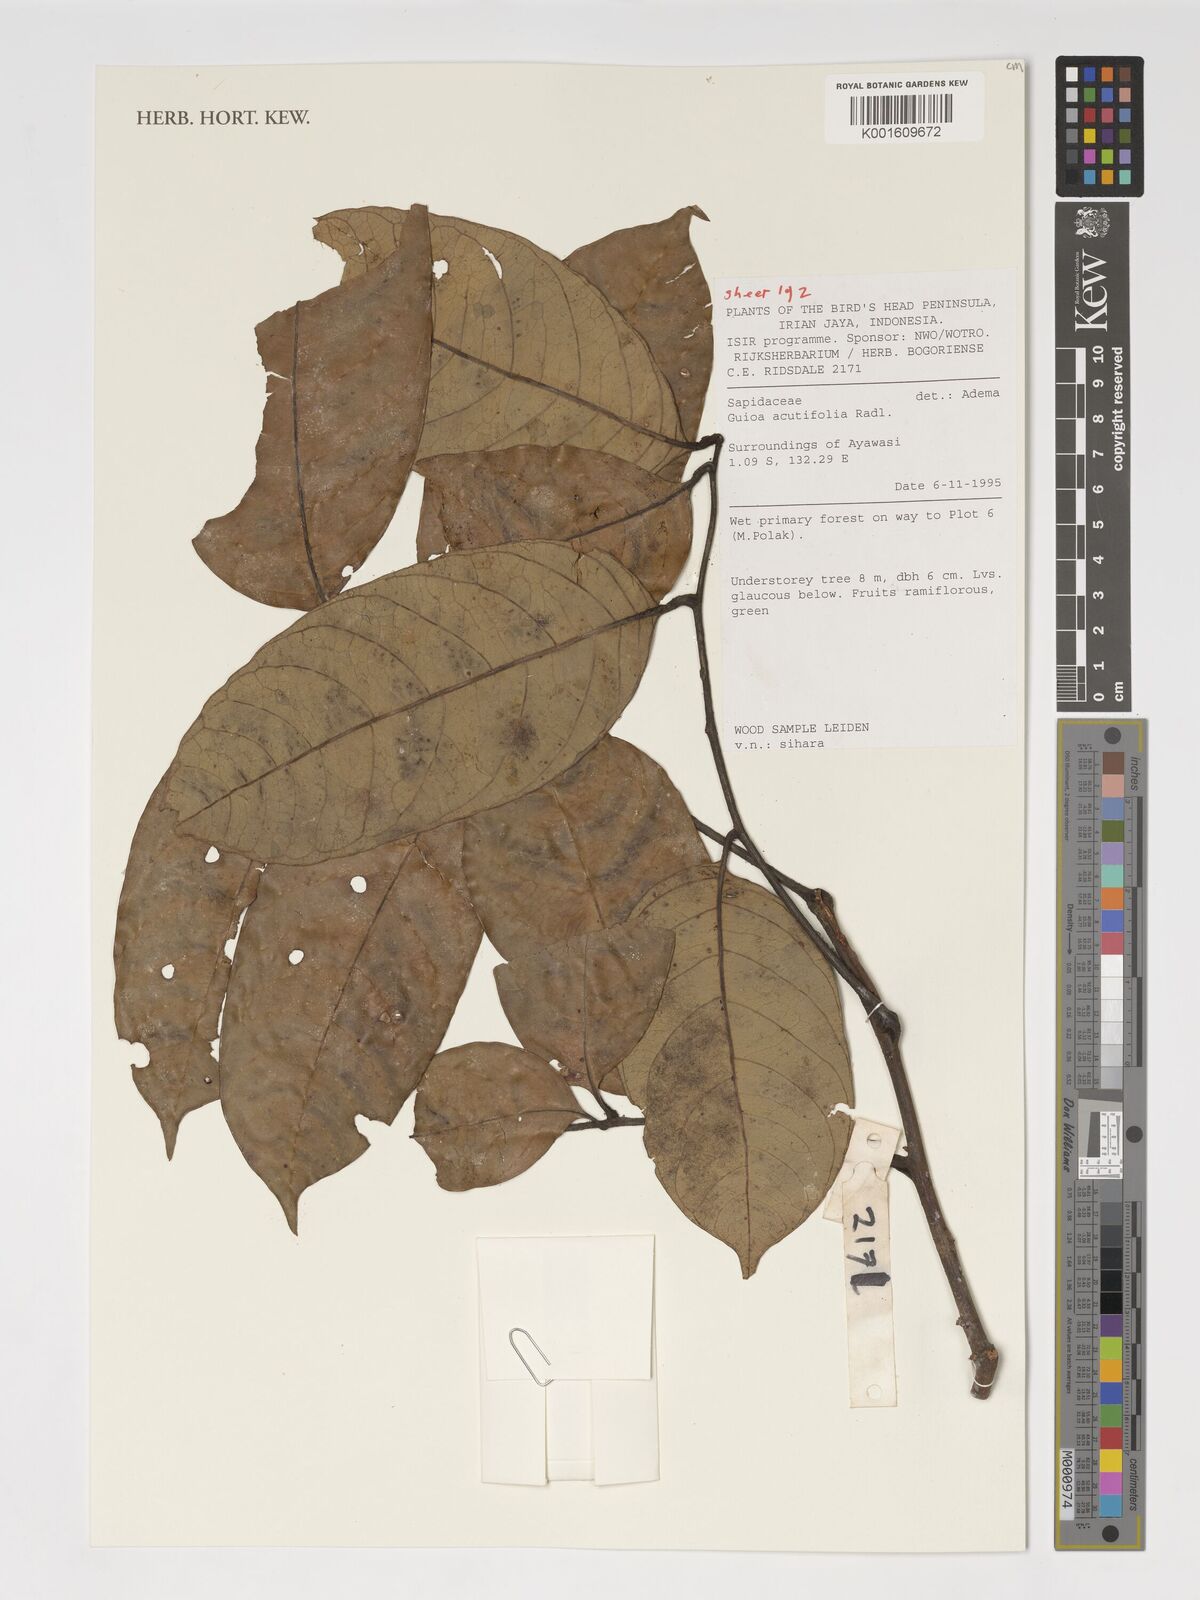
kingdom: Plantae
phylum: Tracheophyta
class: Magnoliopsida
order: Sapindales
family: Sapindaceae
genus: Guioa
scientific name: Guioa acutifolia
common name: Northern guioa
